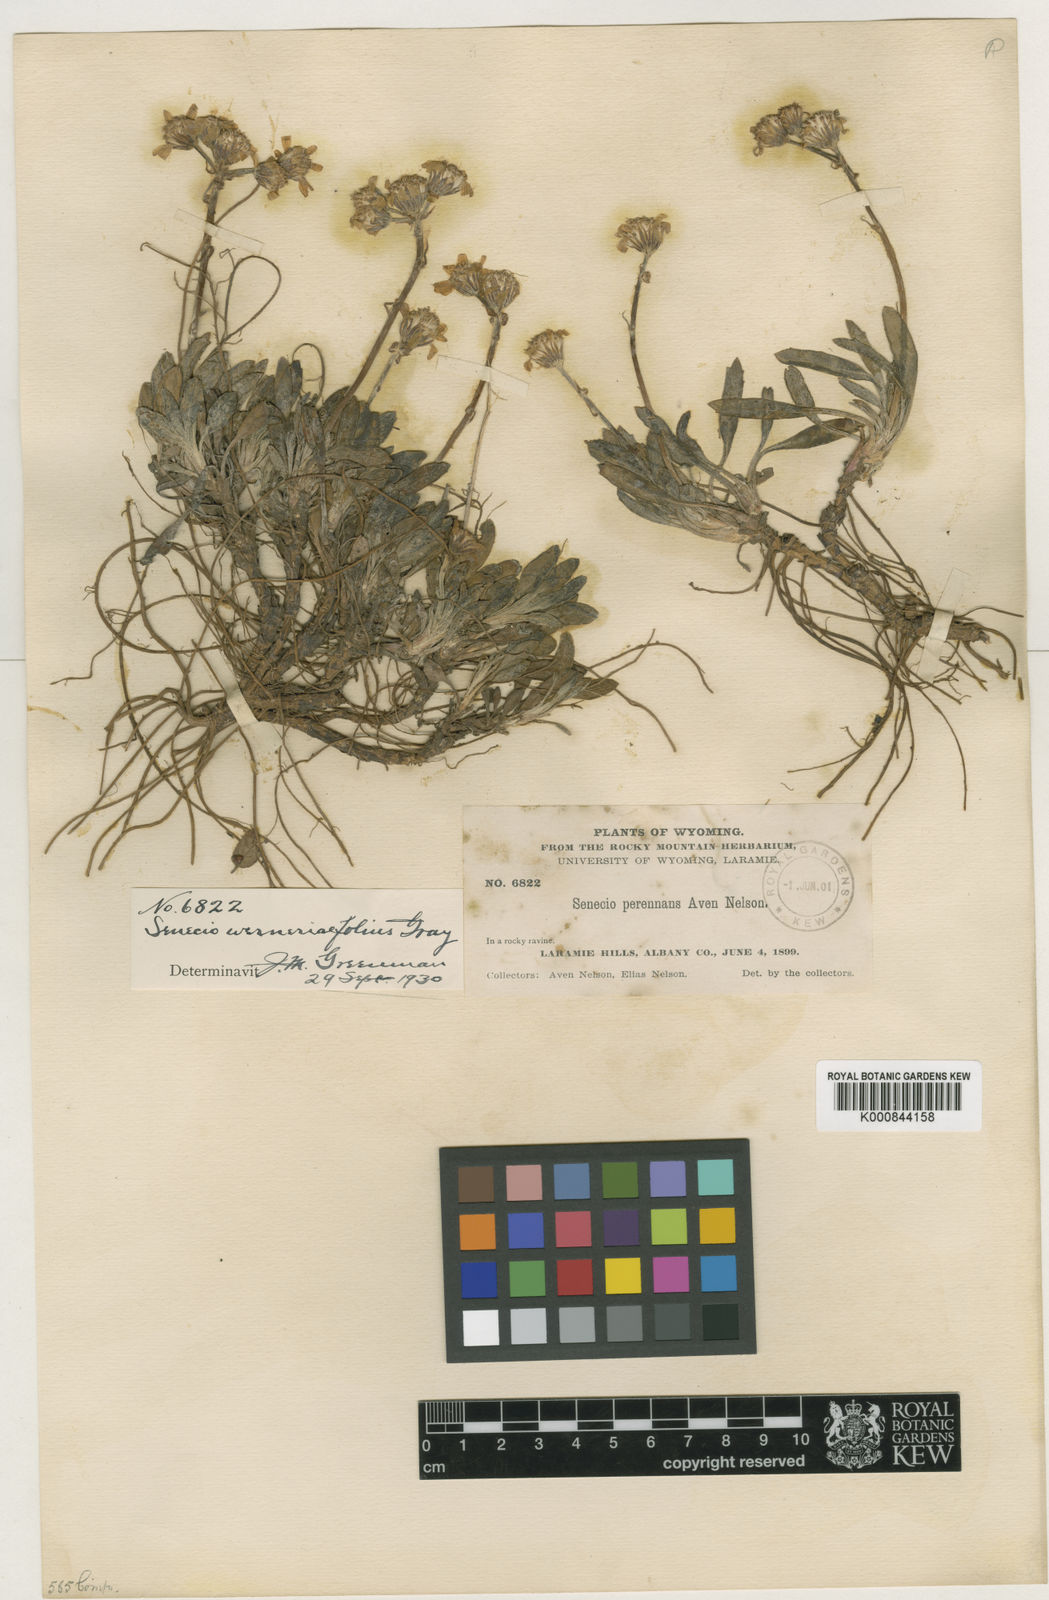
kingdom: Plantae
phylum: Tracheophyta
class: Magnoliopsida
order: Asterales
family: Asteraceae
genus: Packera
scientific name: Packera
